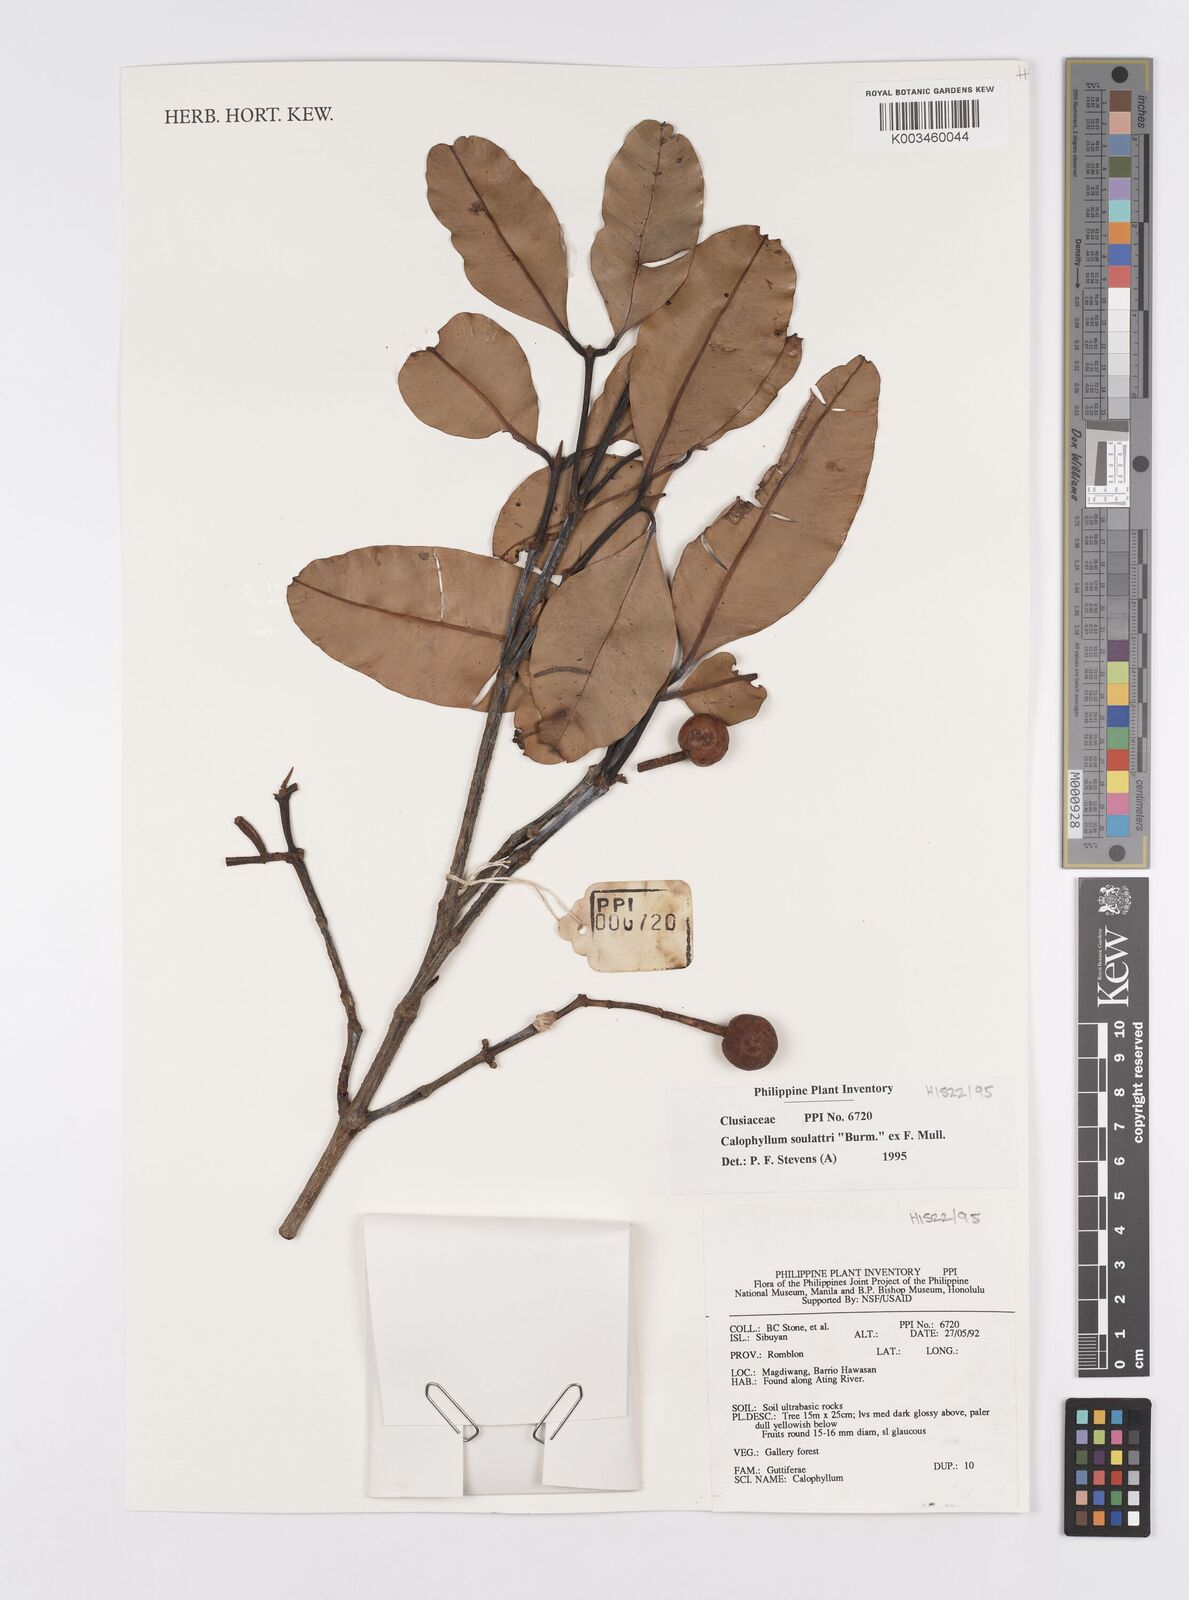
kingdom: Plantae
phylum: Tracheophyta
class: Magnoliopsida
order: Malpighiales
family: Calophyllaceae
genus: Calophyllum
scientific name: Calophyllum soulattri
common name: Bitangoor boonot
